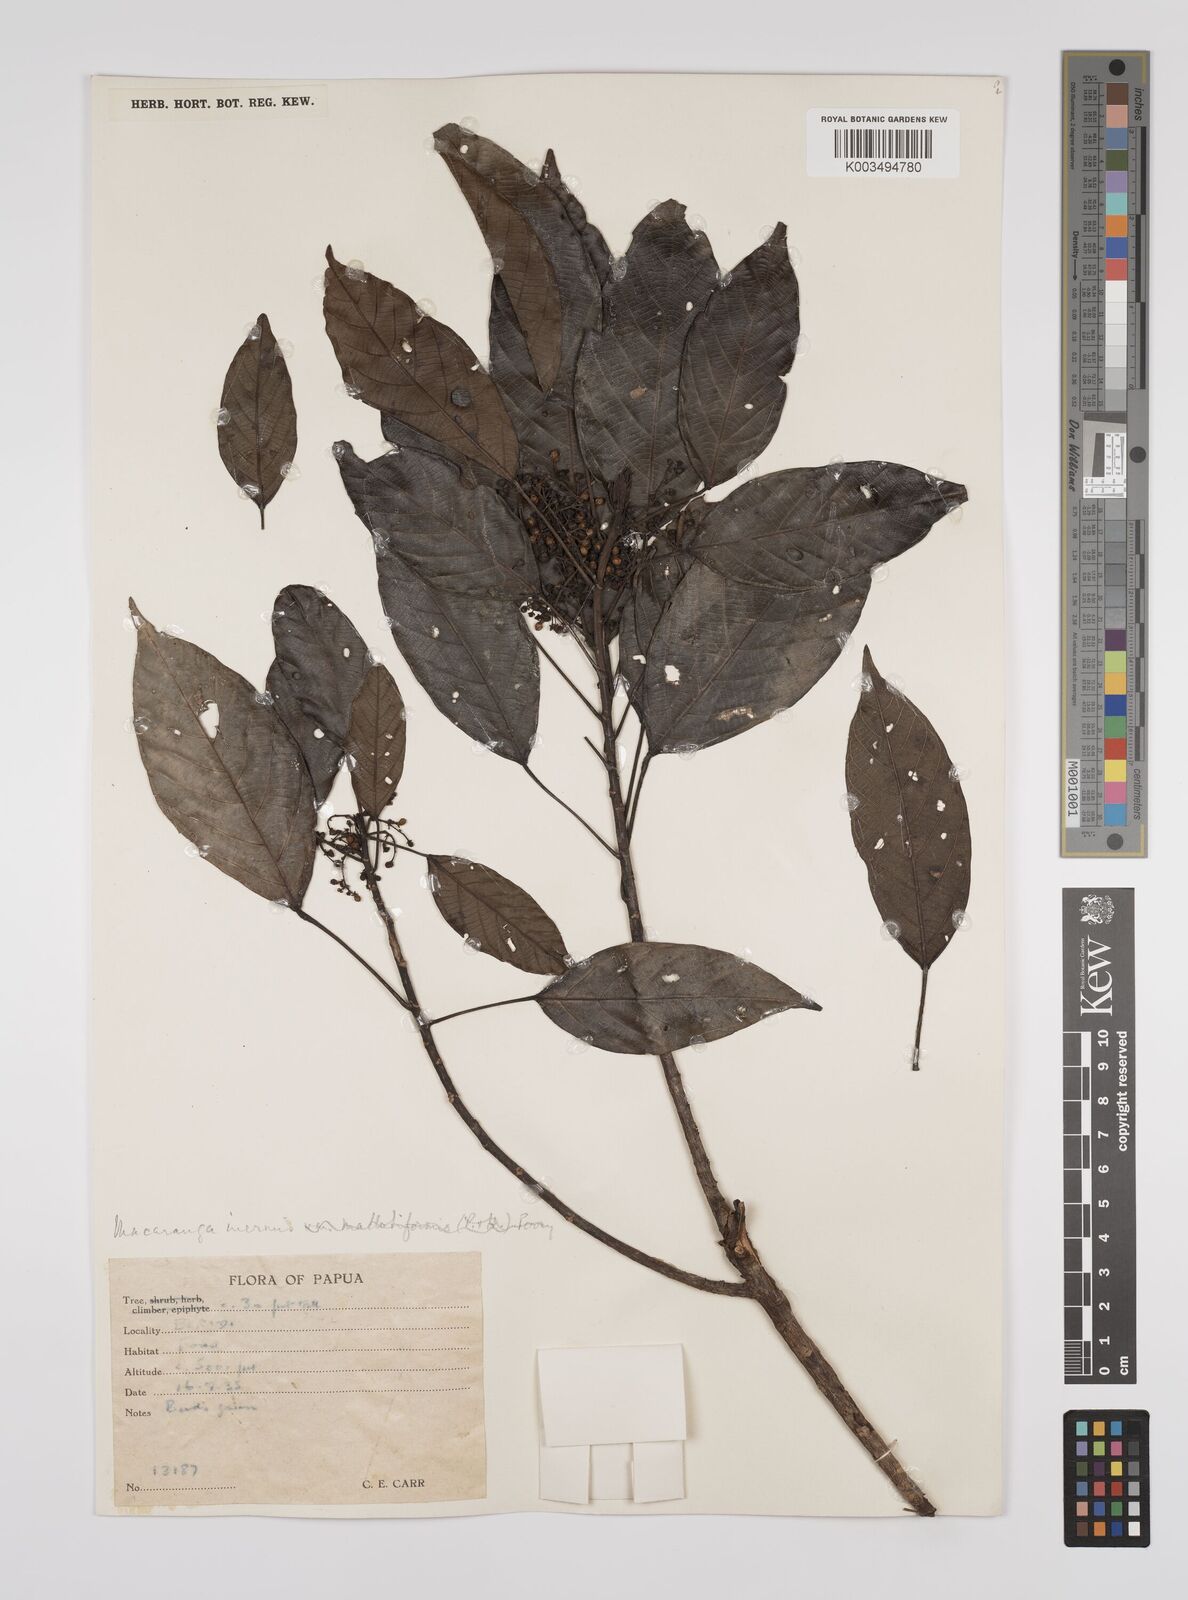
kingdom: Plantae
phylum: Tracheophyta
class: Magnoliopsida
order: Malpighiales
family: Euphorbiaceae
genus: Macaranga
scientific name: Macaranga inermis
